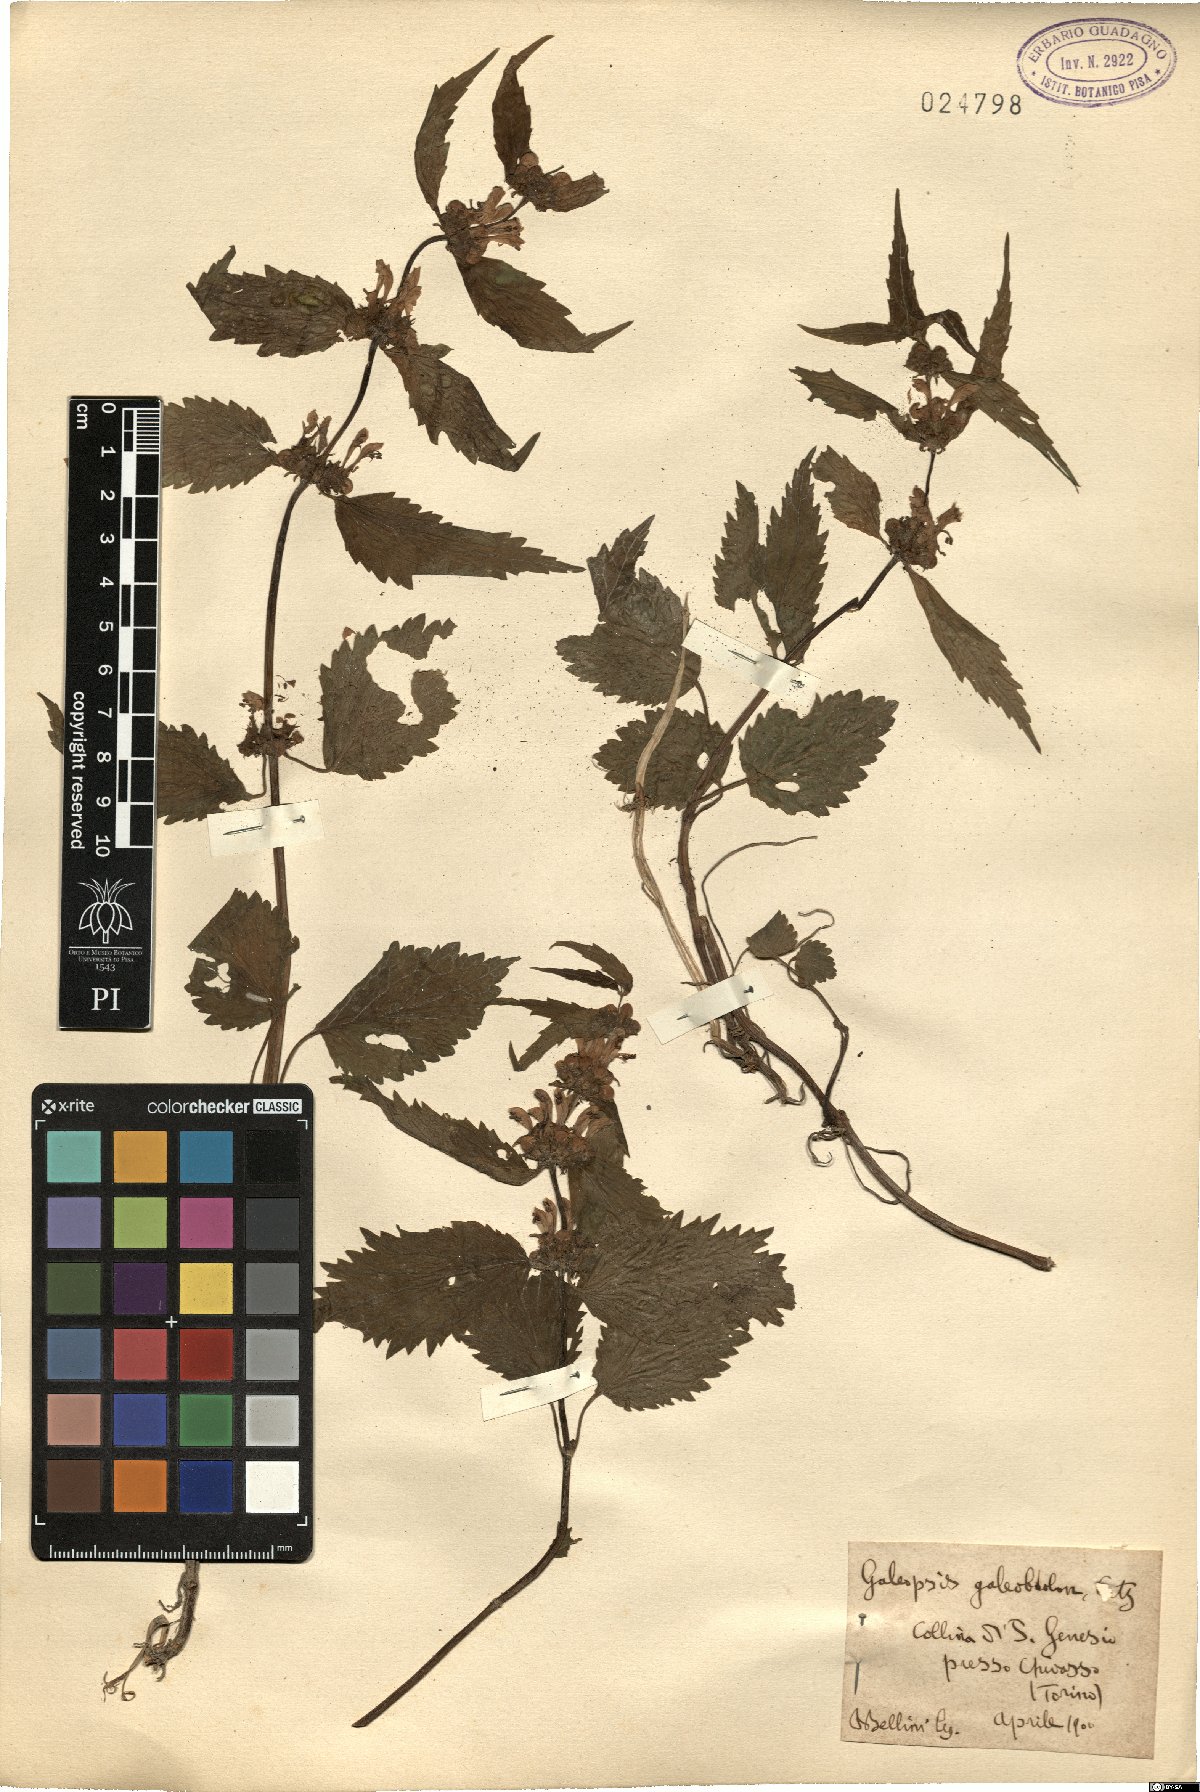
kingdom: Plantae
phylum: Tracheophyta
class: Magnoliopsida
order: Lamiales
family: Lamiaceae
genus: Lamium
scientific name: Lamium galeobdolon
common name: Yellow archangel
